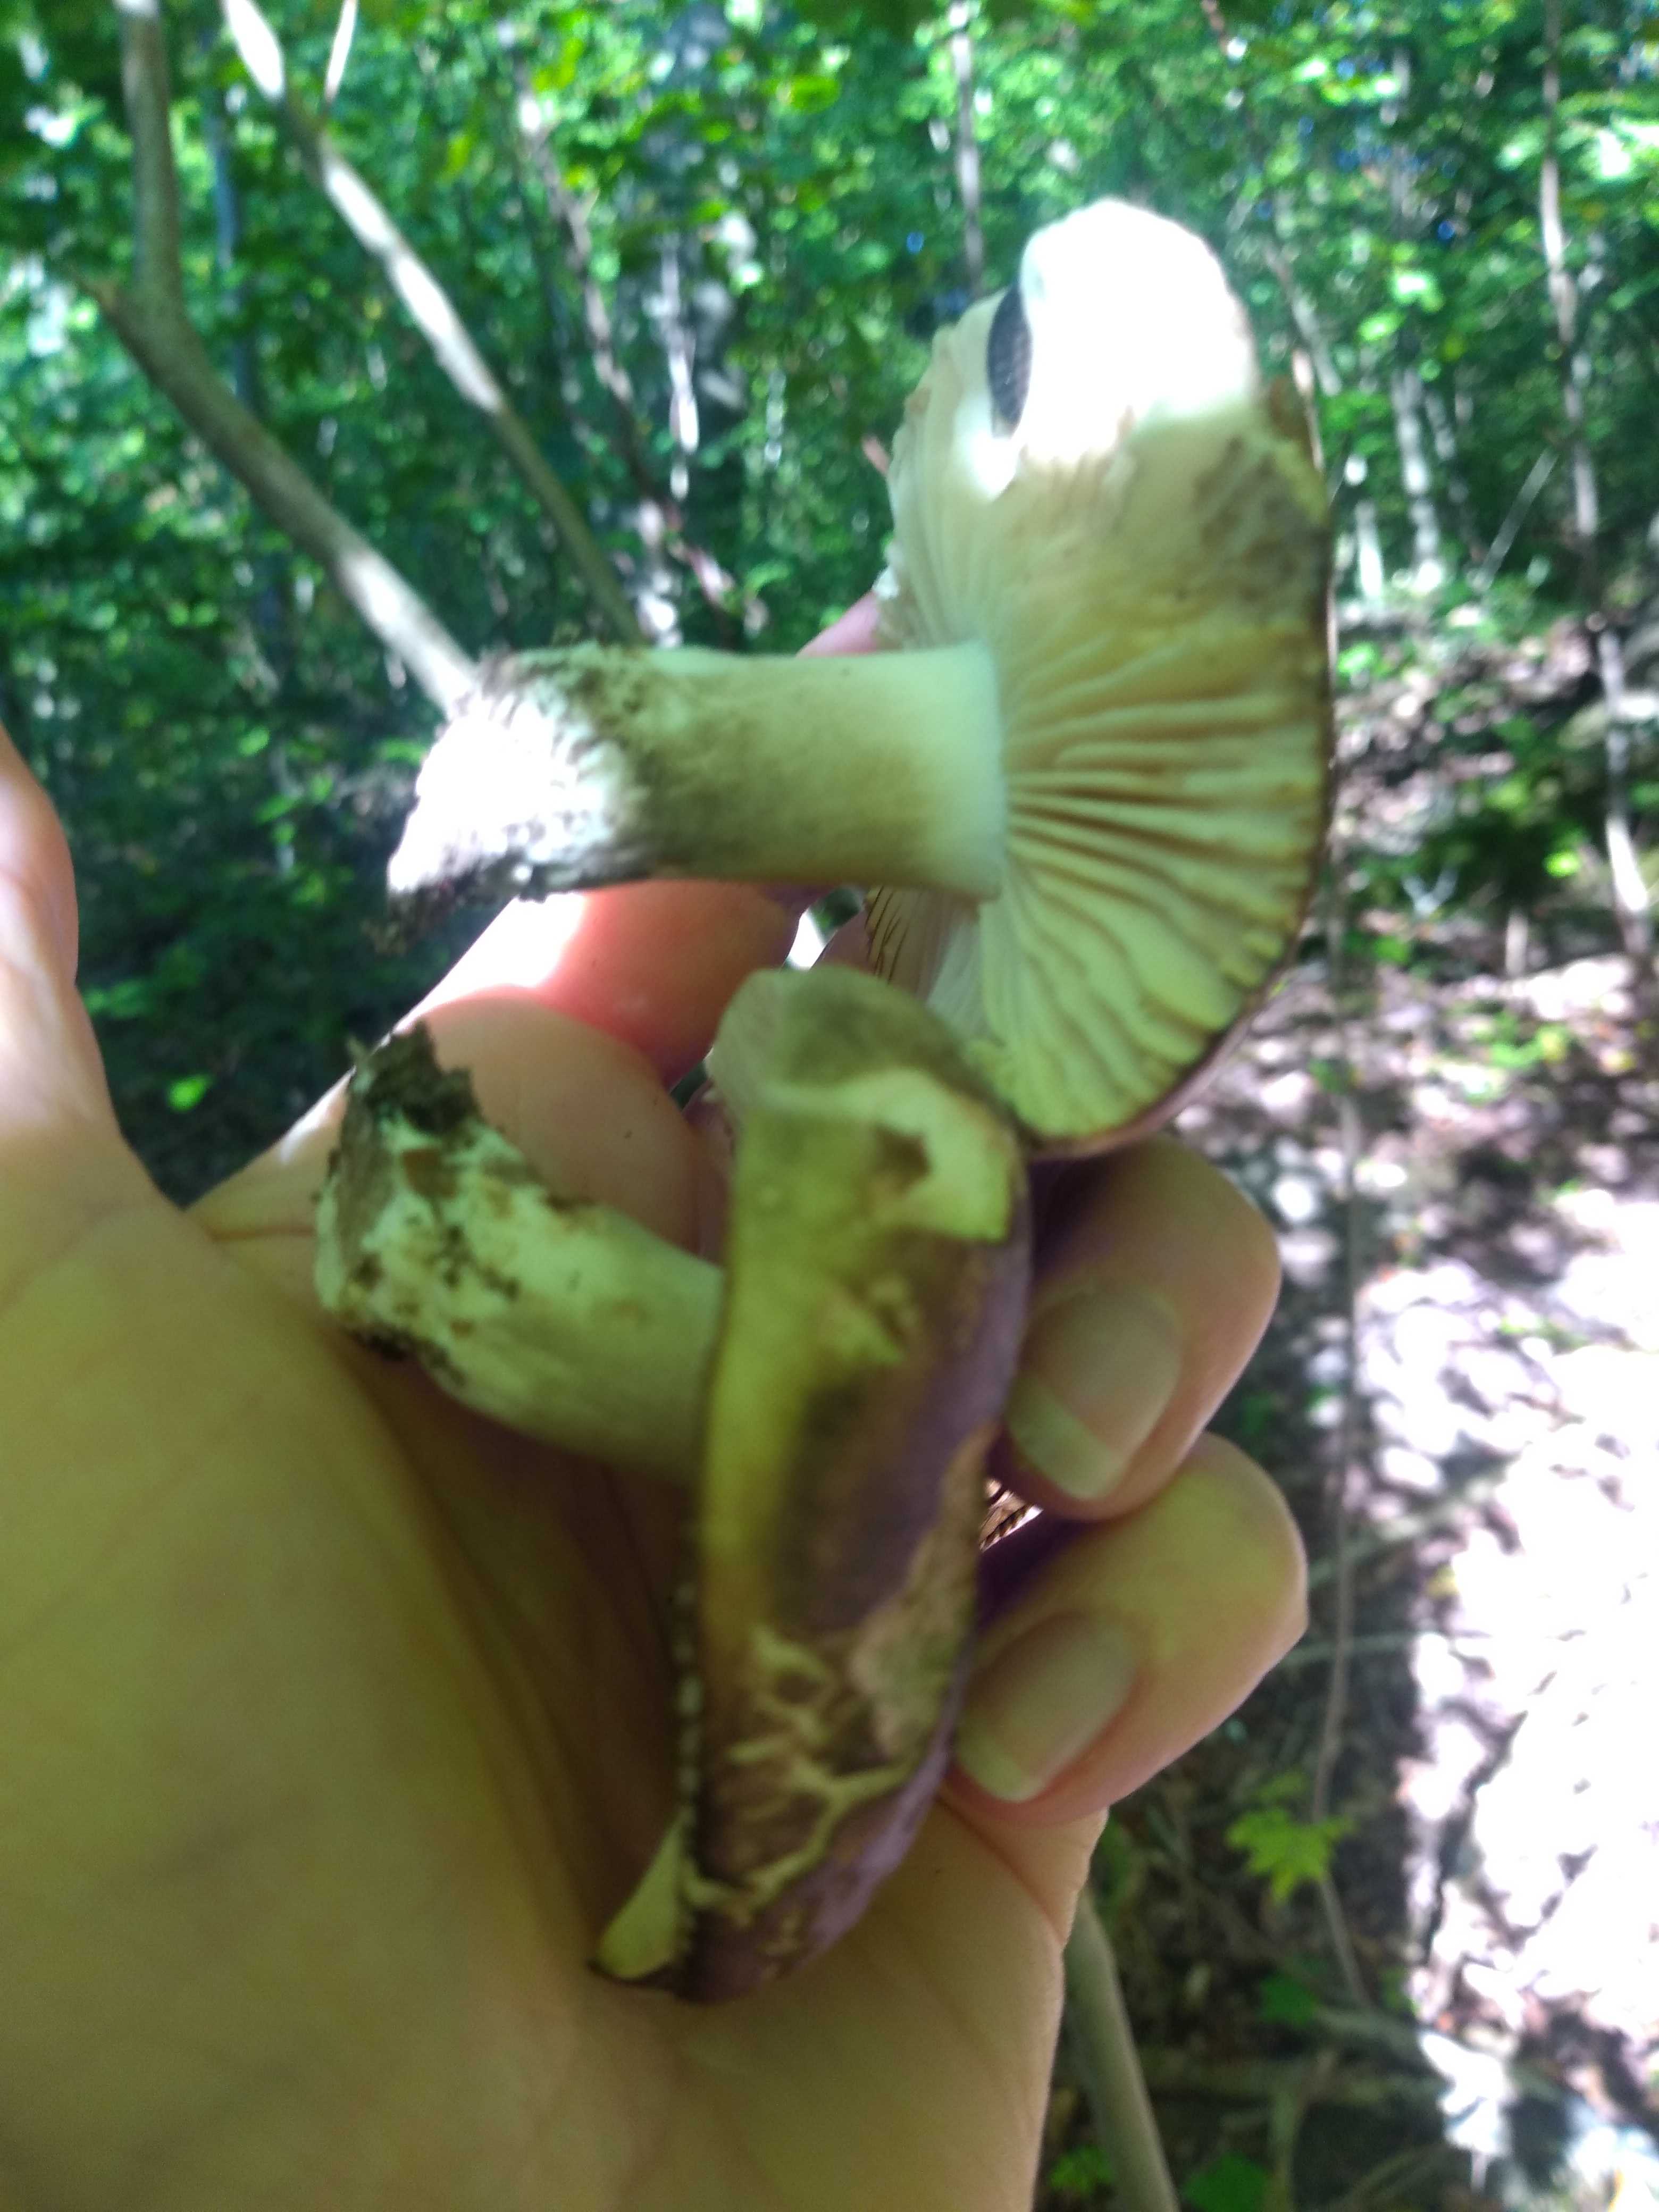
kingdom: Fungi
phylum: Basidiomycota
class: Agaricomycetes
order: Russulales
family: Russulaceae
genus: Russula
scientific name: Russula adusta
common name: sværtende skørhat
